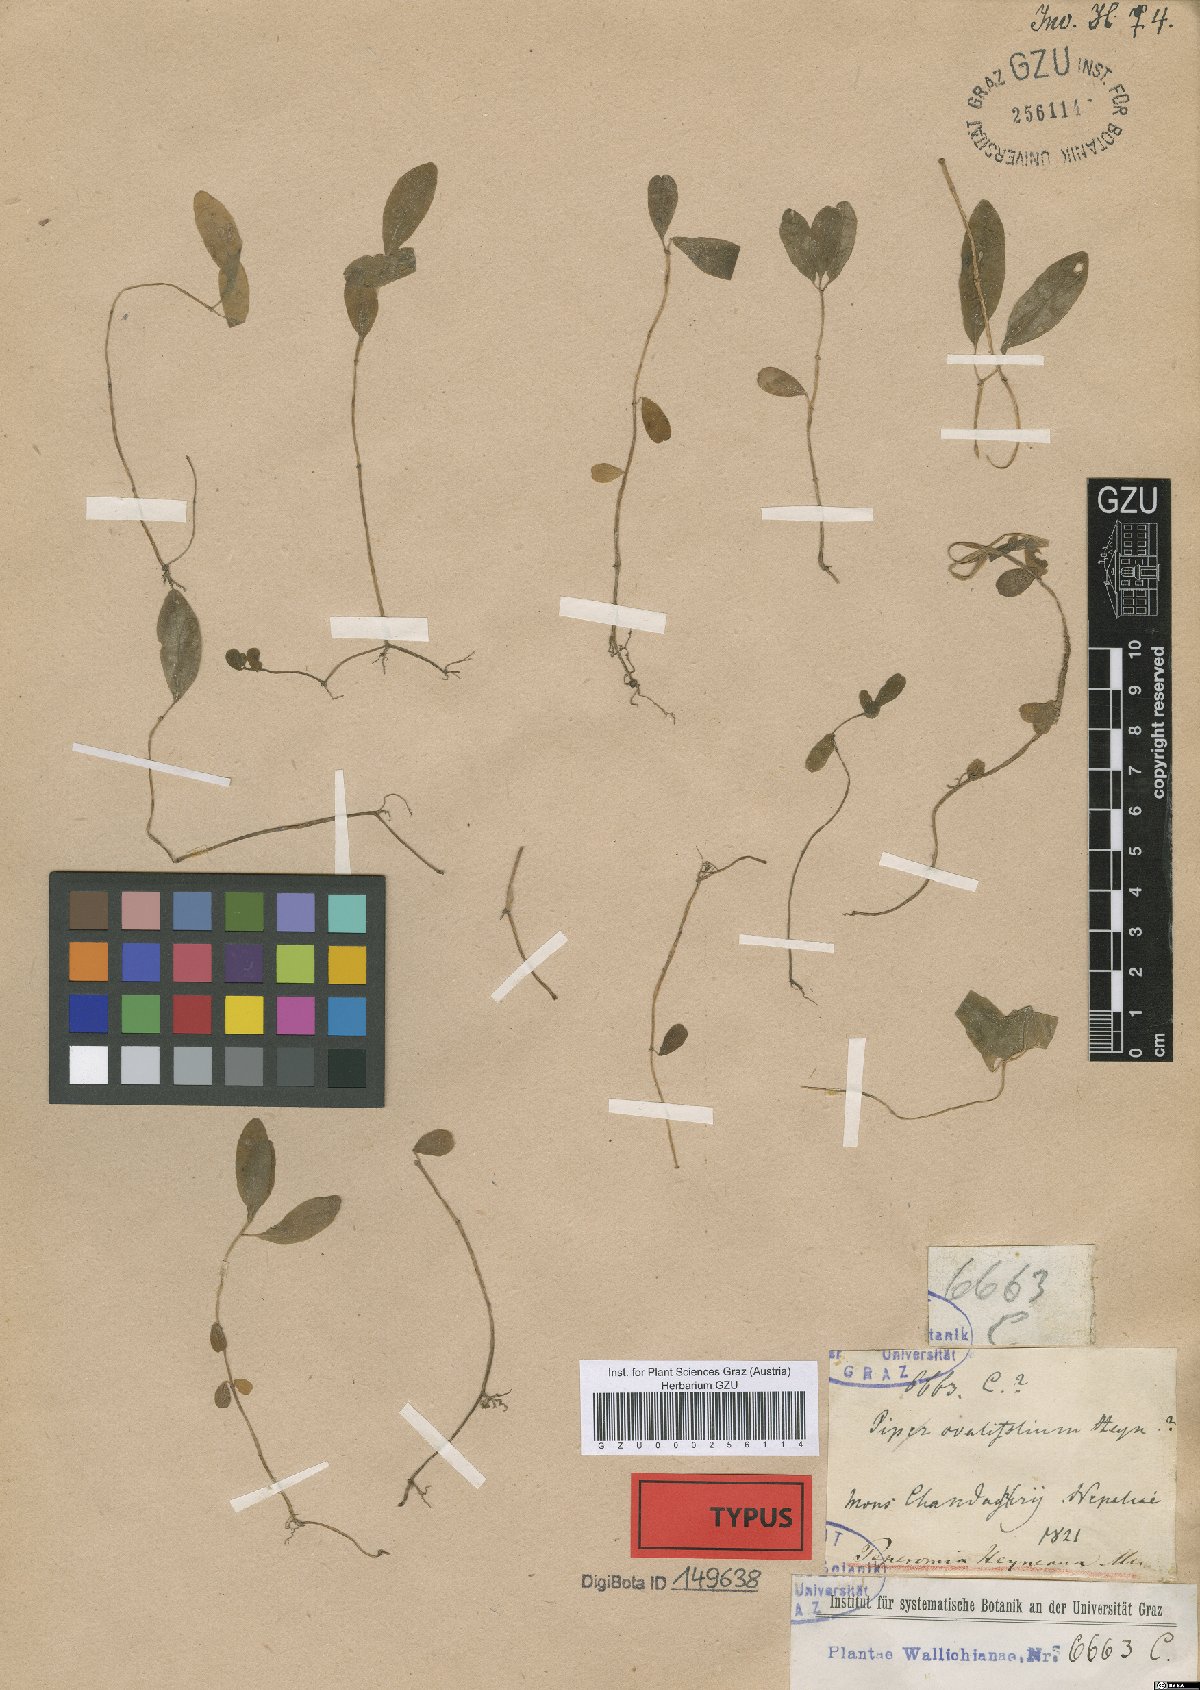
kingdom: Plantae
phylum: Tracheophyta
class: Magnoliopsida
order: Piperales
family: Piperaceae
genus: Peperomia
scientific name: Peperomia heyneana
